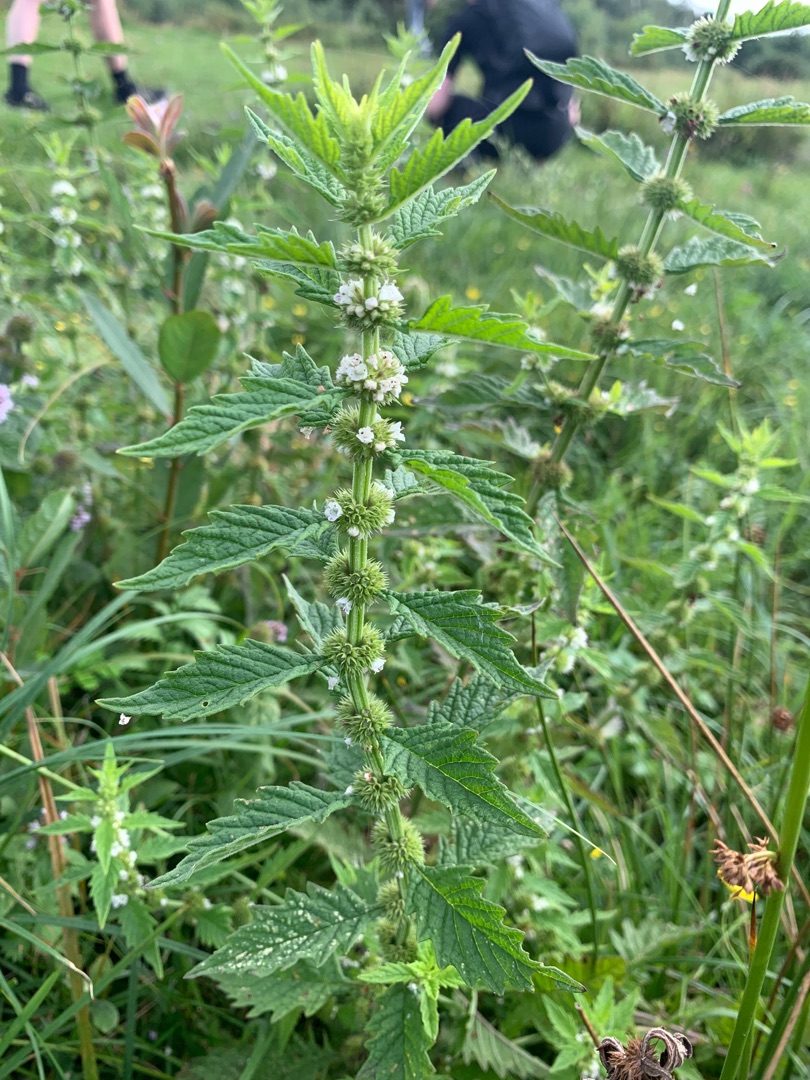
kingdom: Plantae
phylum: Tracheophyta
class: Magnoliopsida
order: Lamiales
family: Lamiaceae
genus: Lycopus
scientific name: Lycopus europaeus
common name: Sværtevæld
